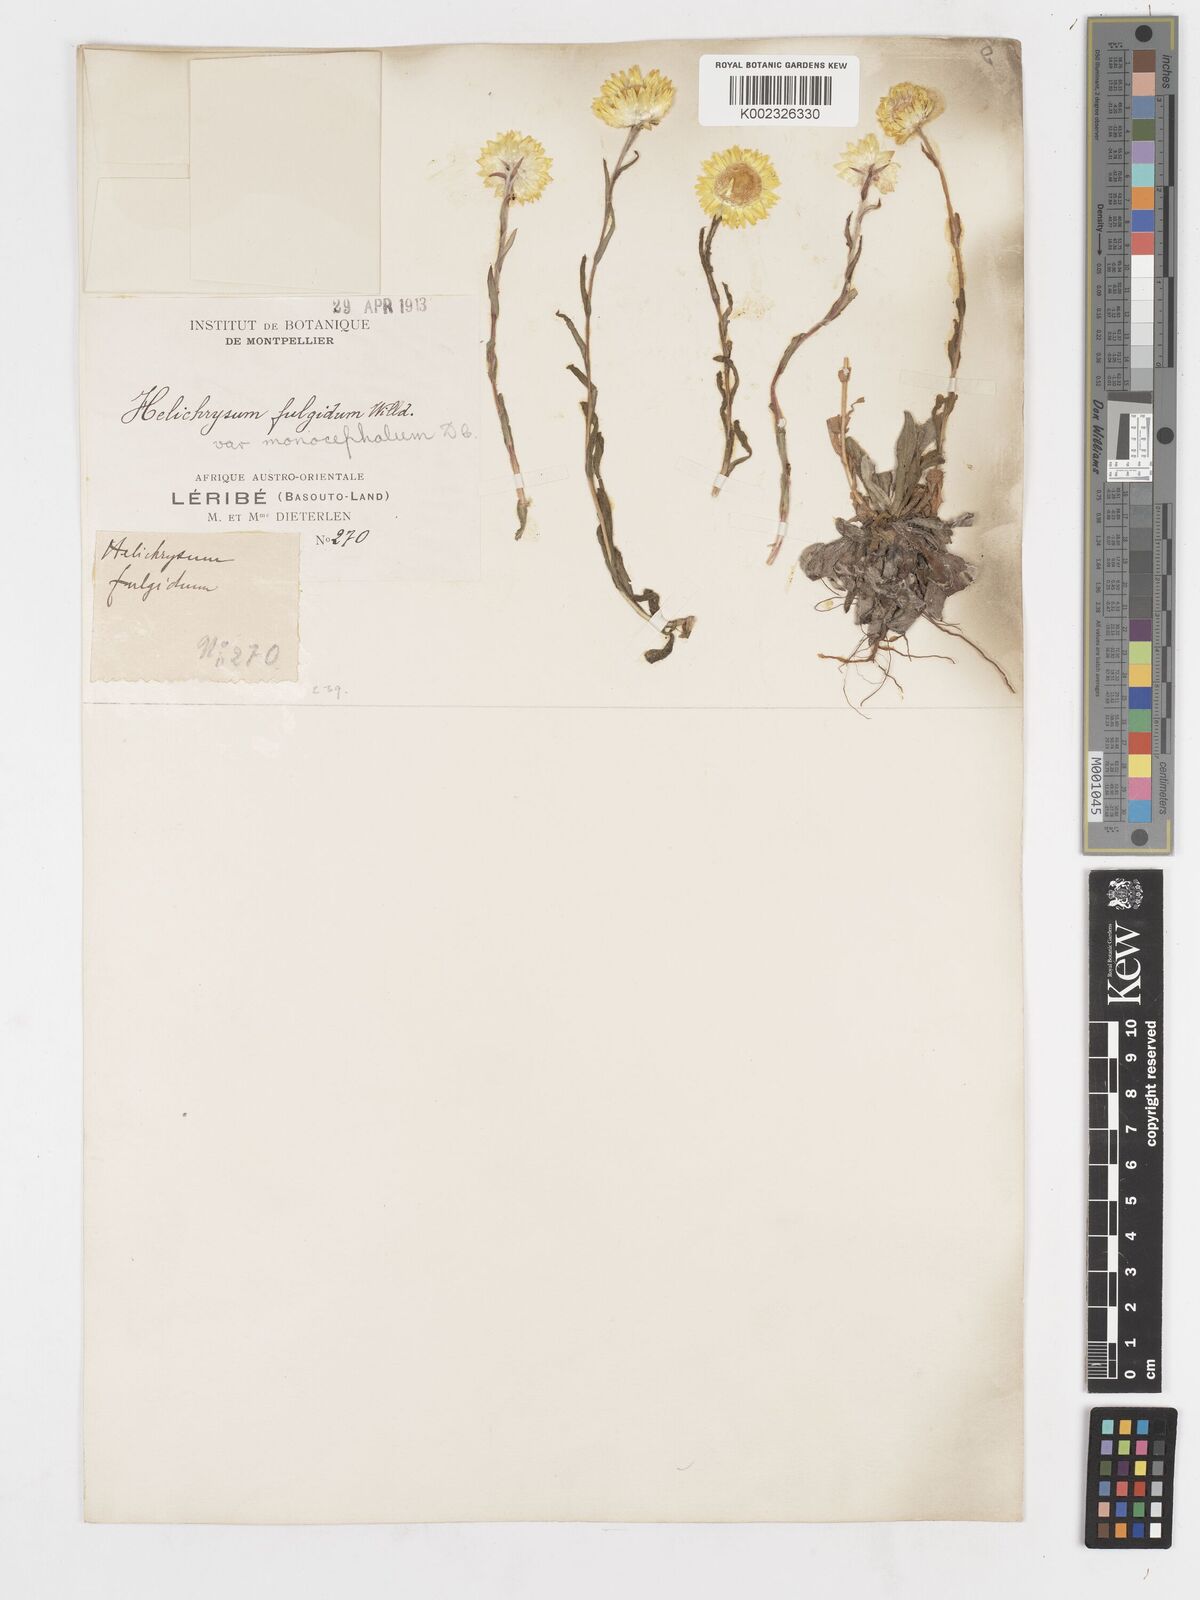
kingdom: Plantae
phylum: Tracheophyta
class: Magnoliopsida
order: Asterales
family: Asteraceae
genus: Helichrysum
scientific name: Helichrysum aureum
